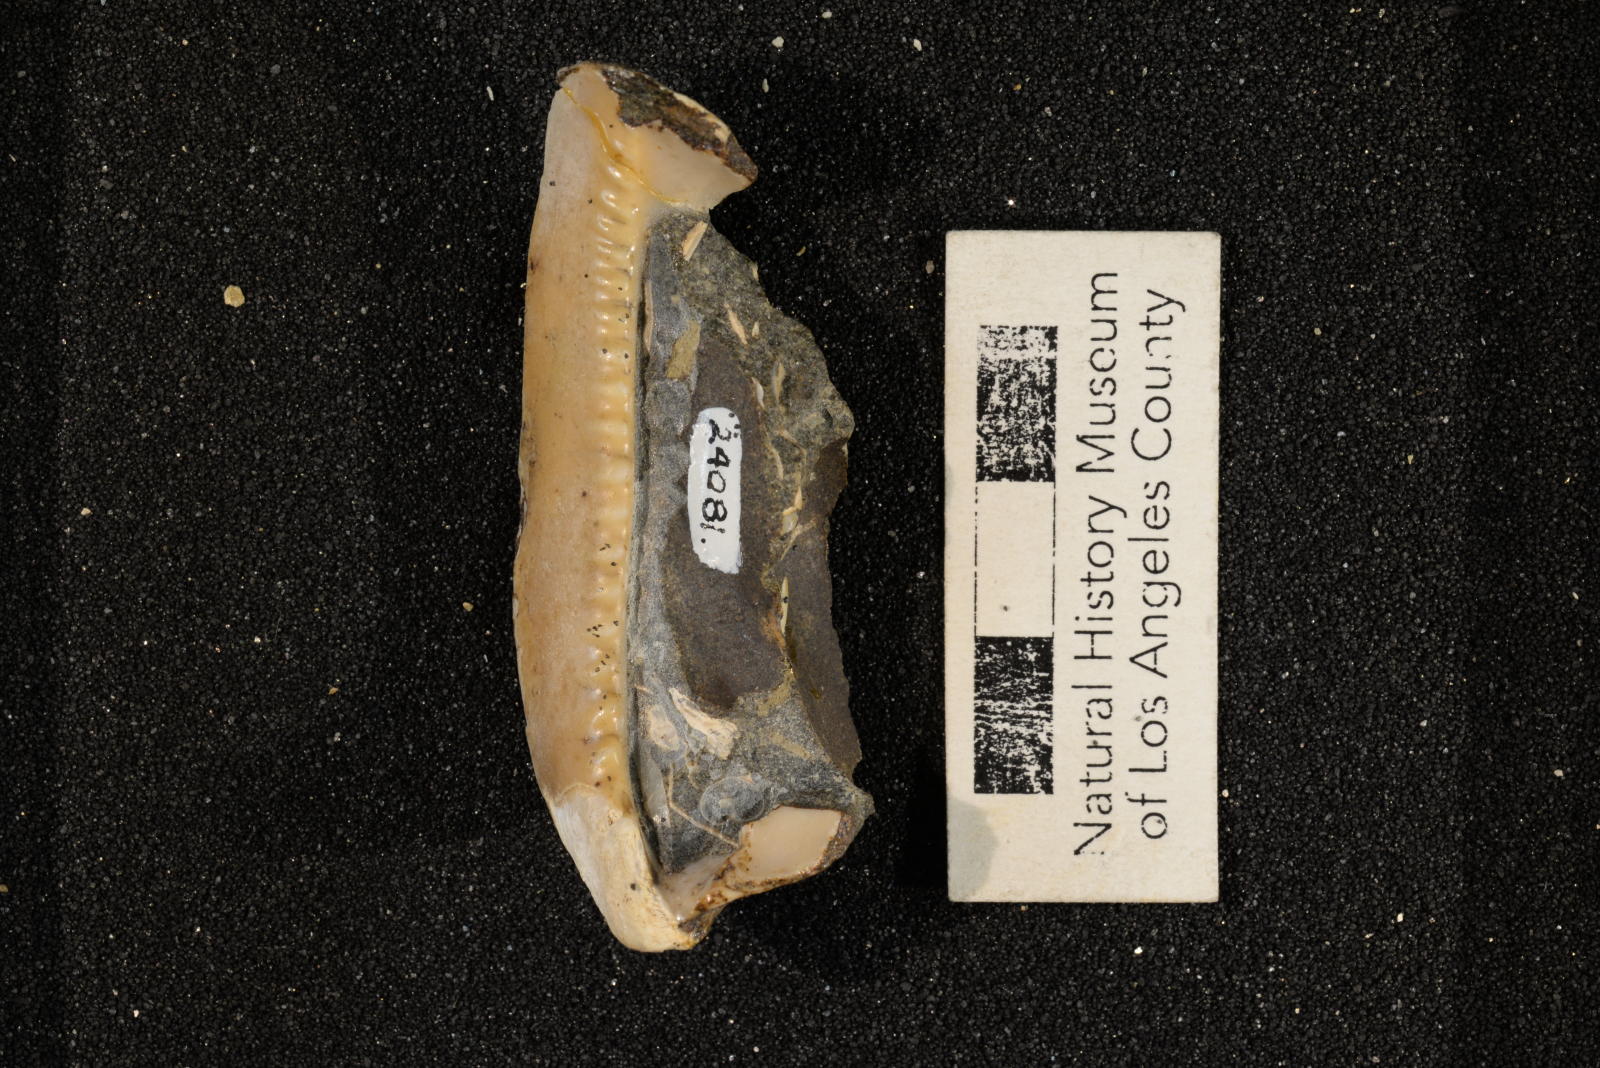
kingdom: Animalia
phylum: Mollusca
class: Gastropoda
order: Littorinimorpha
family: Cypraeidae
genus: Protocypraea
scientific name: Protocypraea
